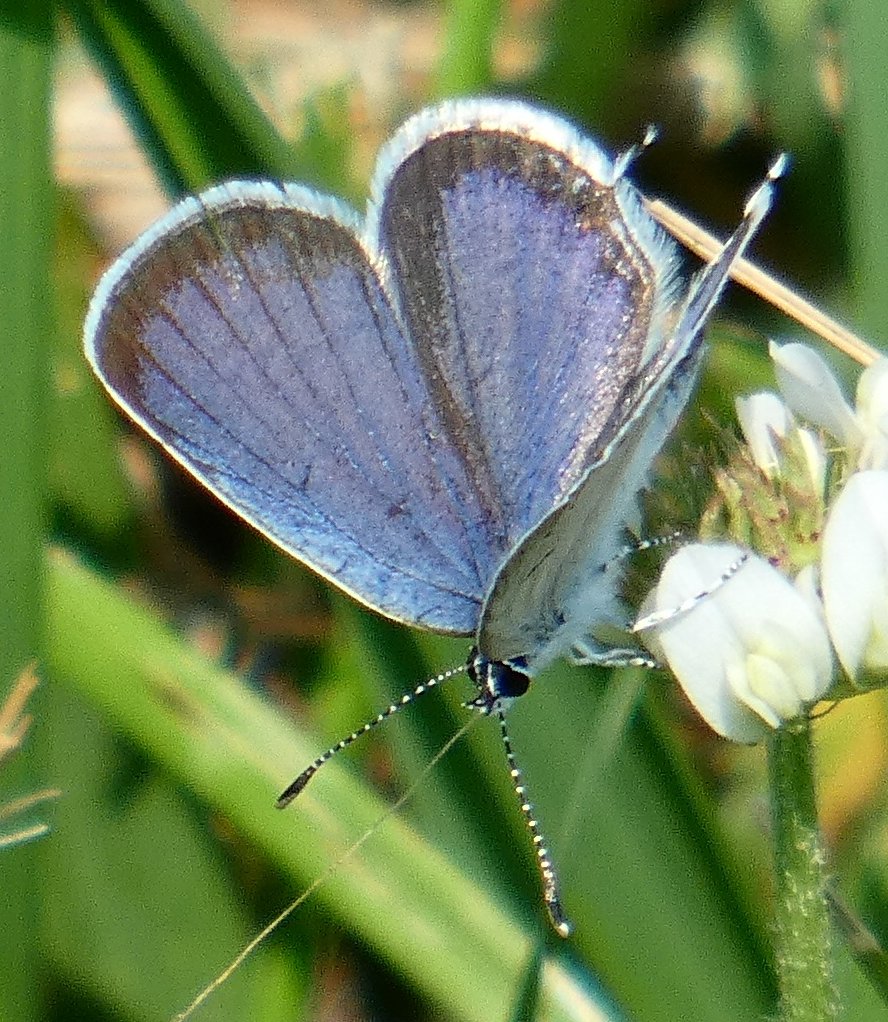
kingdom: Animalia
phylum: Arthropoda
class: Insecta
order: Lepidoptera
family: Lycaenidae
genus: Elkalyce
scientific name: Elkalyce comyntas
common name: Eastern Tailed-Blue
